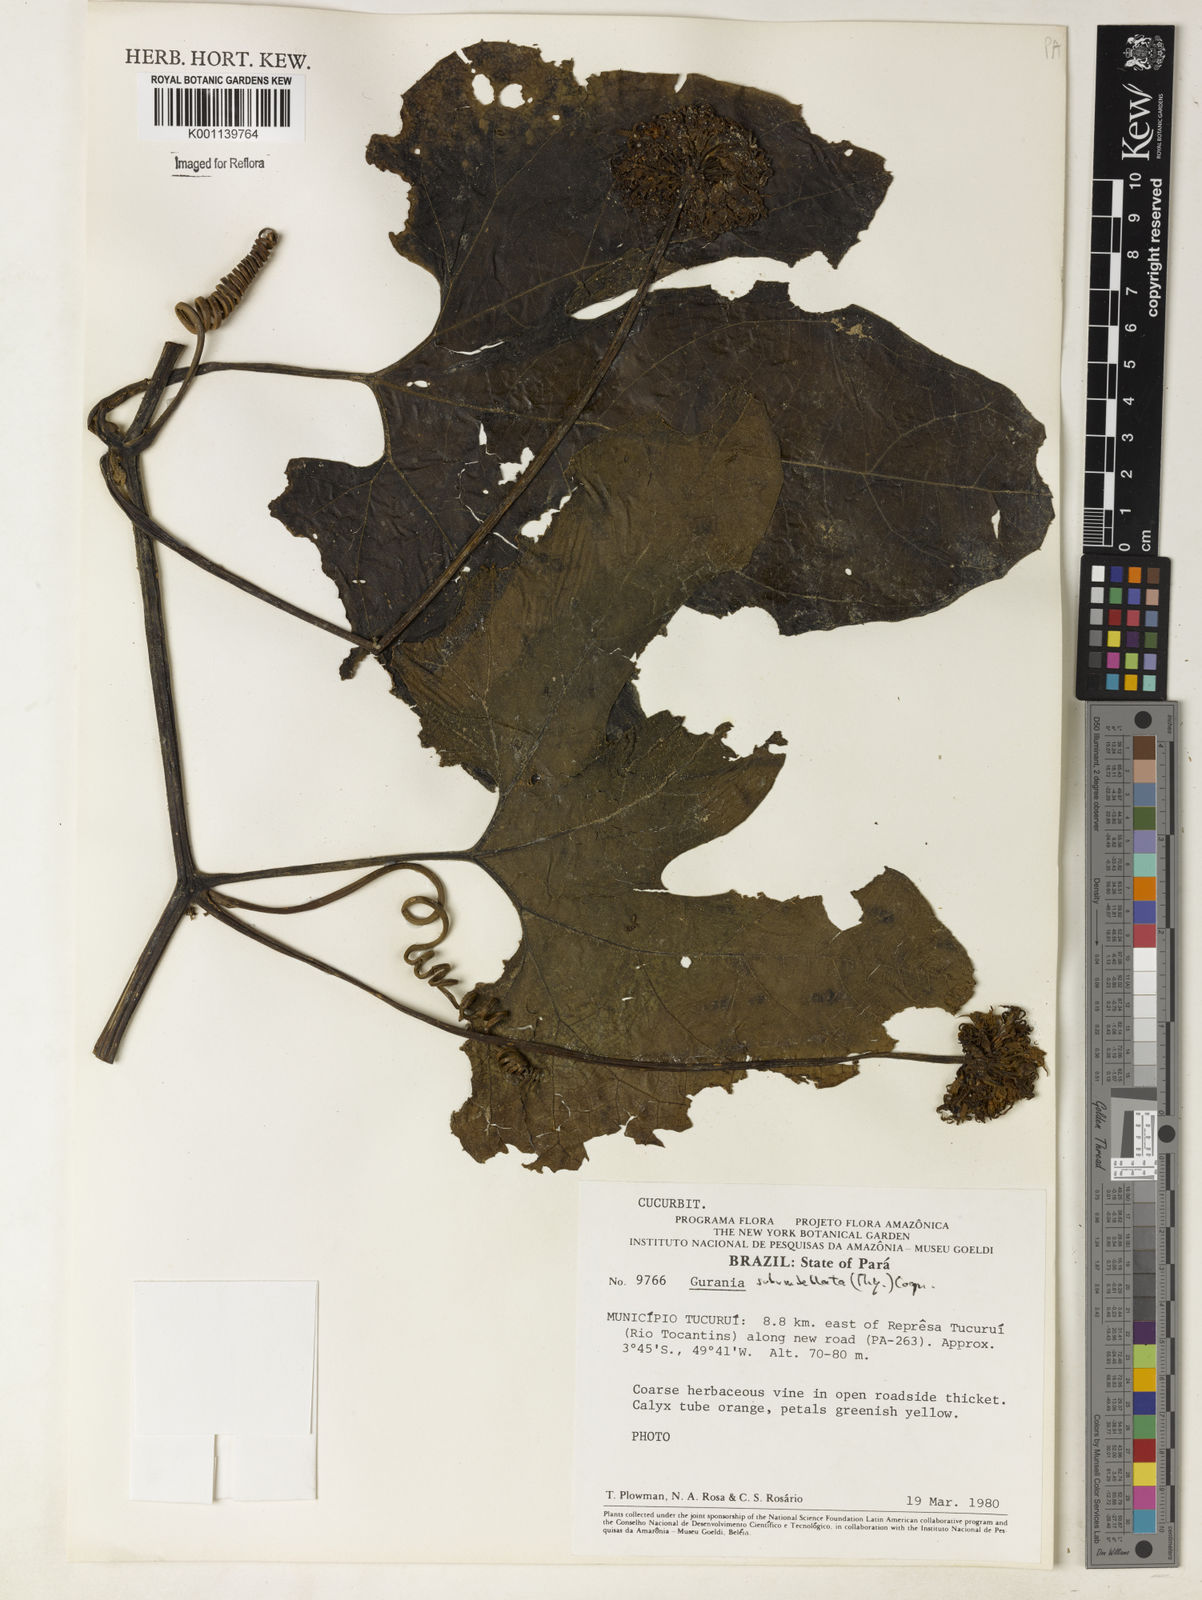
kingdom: Plantae
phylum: Tracheophyta
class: Magnoliopsida
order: Cucurbitales
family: Cucurbitaceae
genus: Gurania
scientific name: Gurania subumbellata
